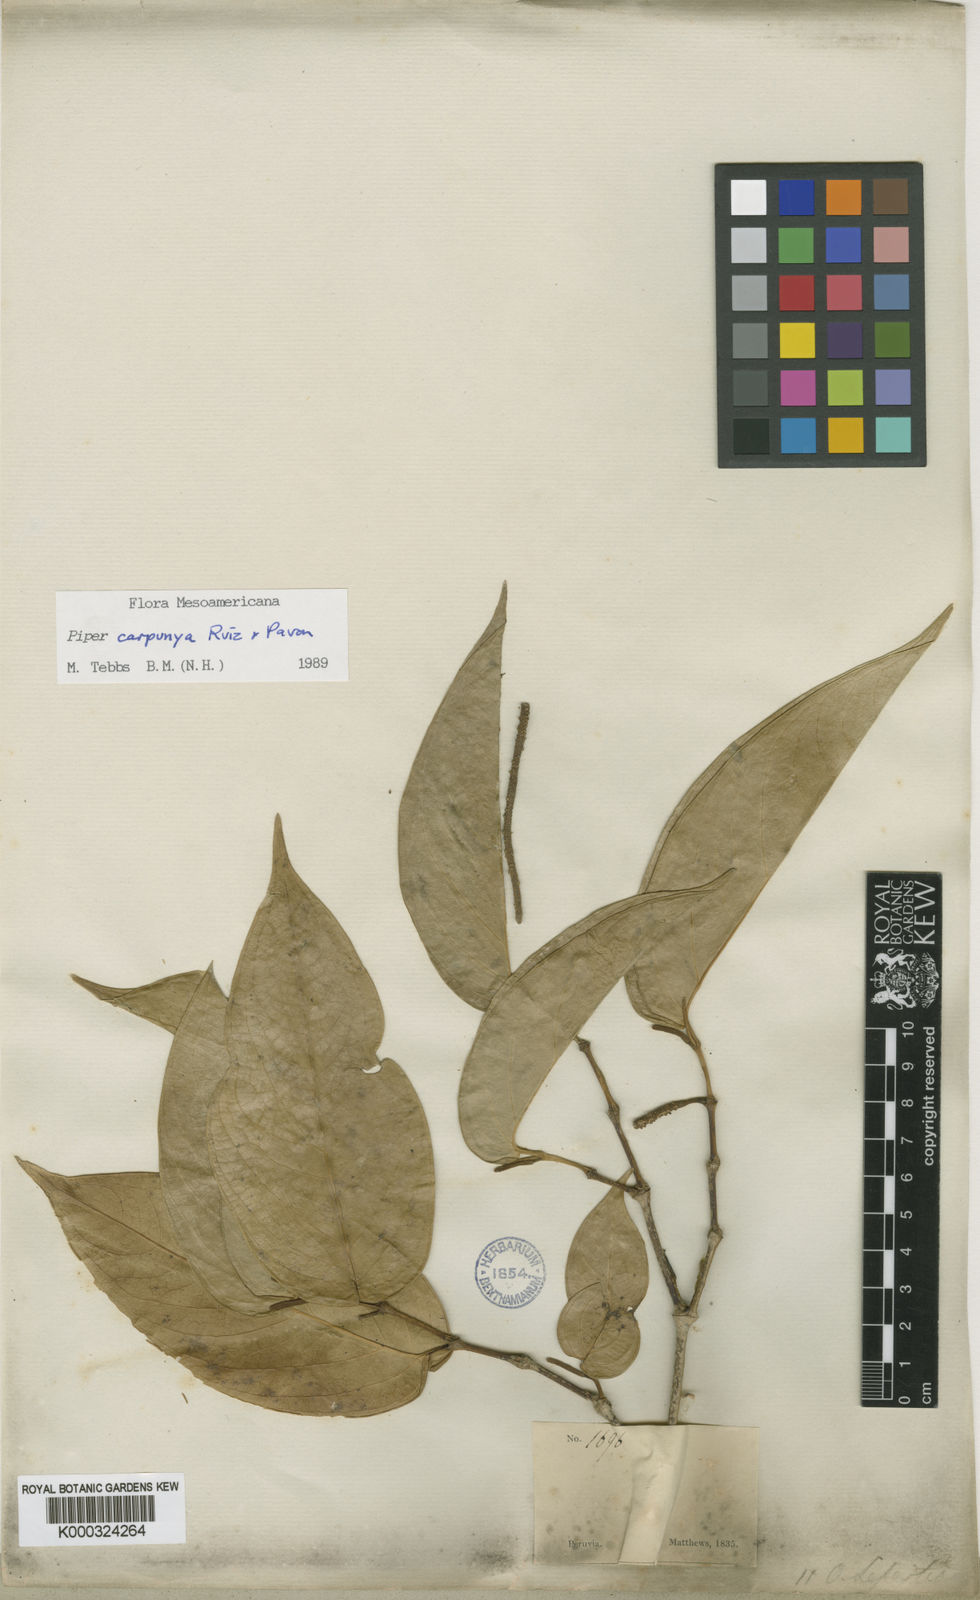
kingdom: Plantae
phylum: Tracheophyta
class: Magnoliopsida
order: Piperales
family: Piperaceae
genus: Piper
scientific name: Piper carpunya
